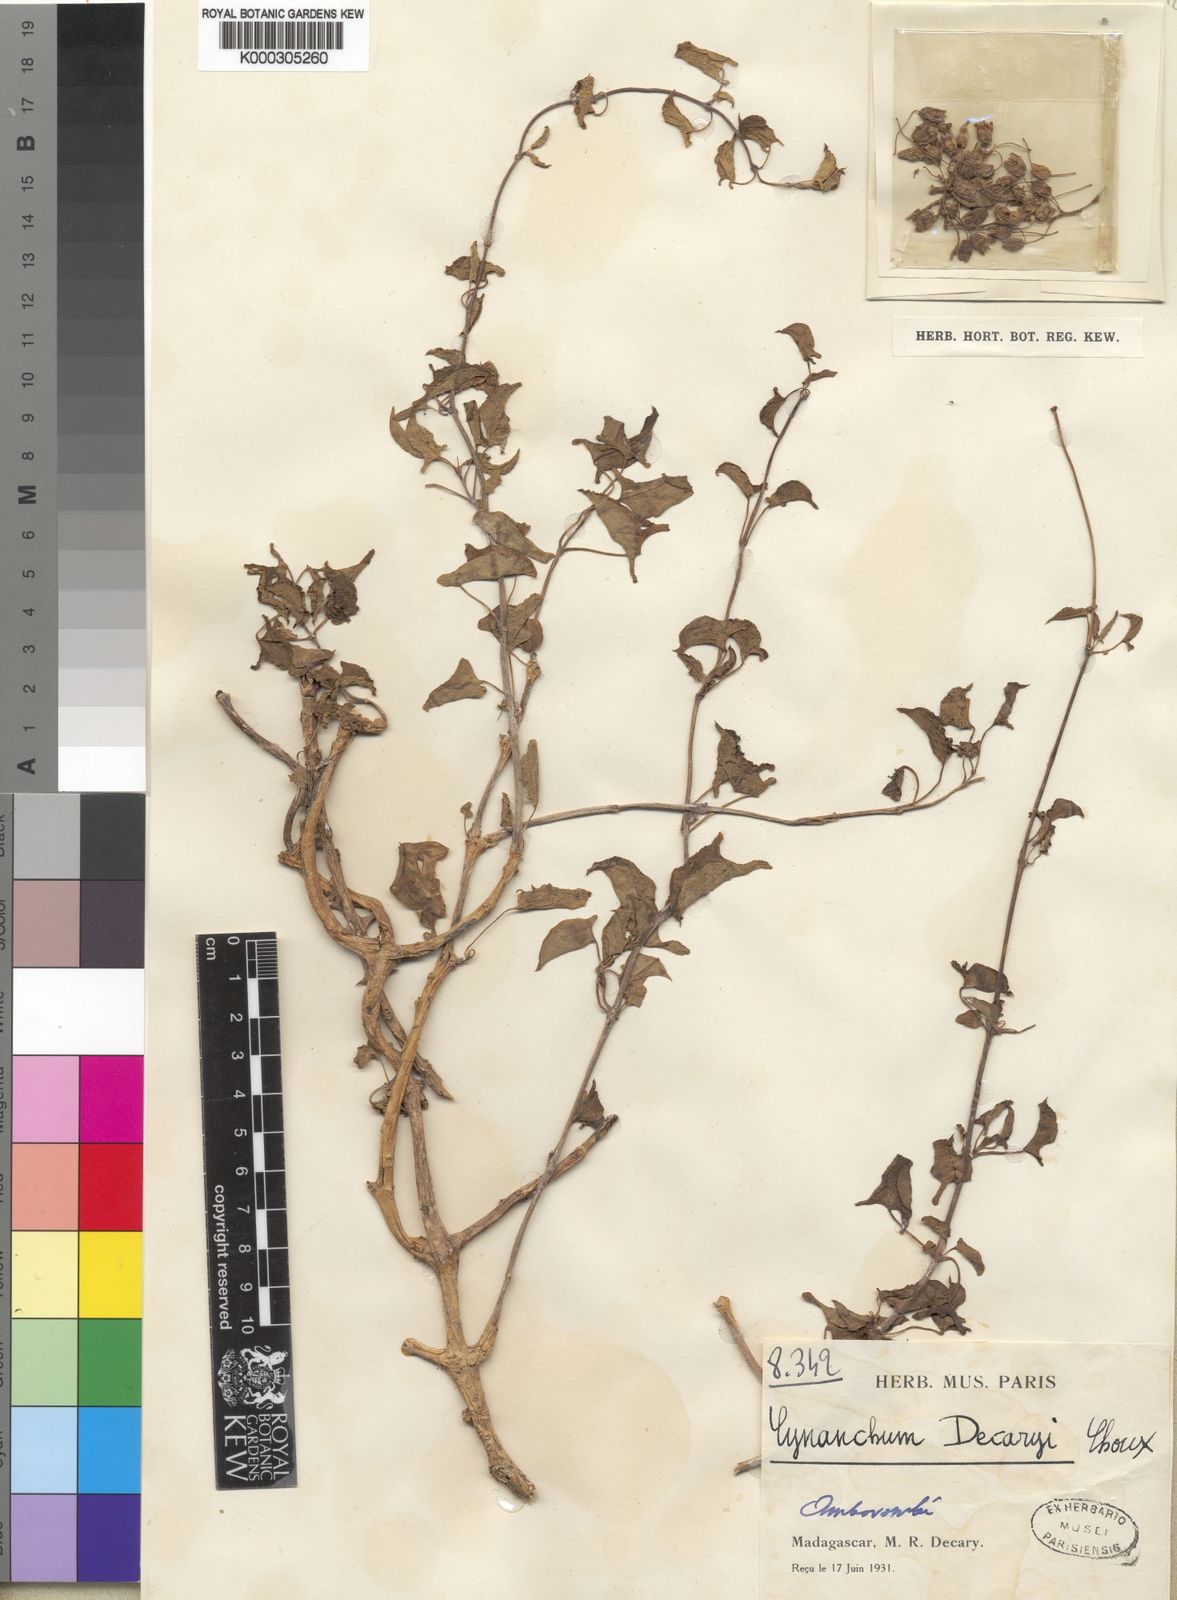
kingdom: Plantae
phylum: Tracheophyta
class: Magnoliopsida
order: Gentianales
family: Apocynaceae
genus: Cynanchum
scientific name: Cynanchum decaryi
